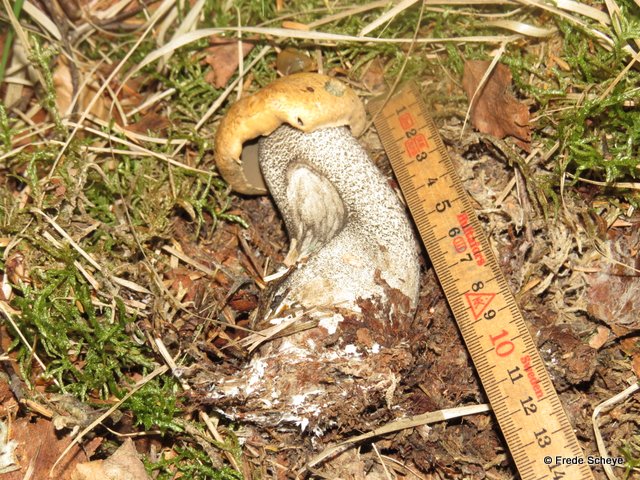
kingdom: Fungi
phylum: Basidiomycota
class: Agaricomycetes
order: Boletales
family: Boletaceae
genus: Leccinum
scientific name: Leccinum versipelle
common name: orange skælrørhat
